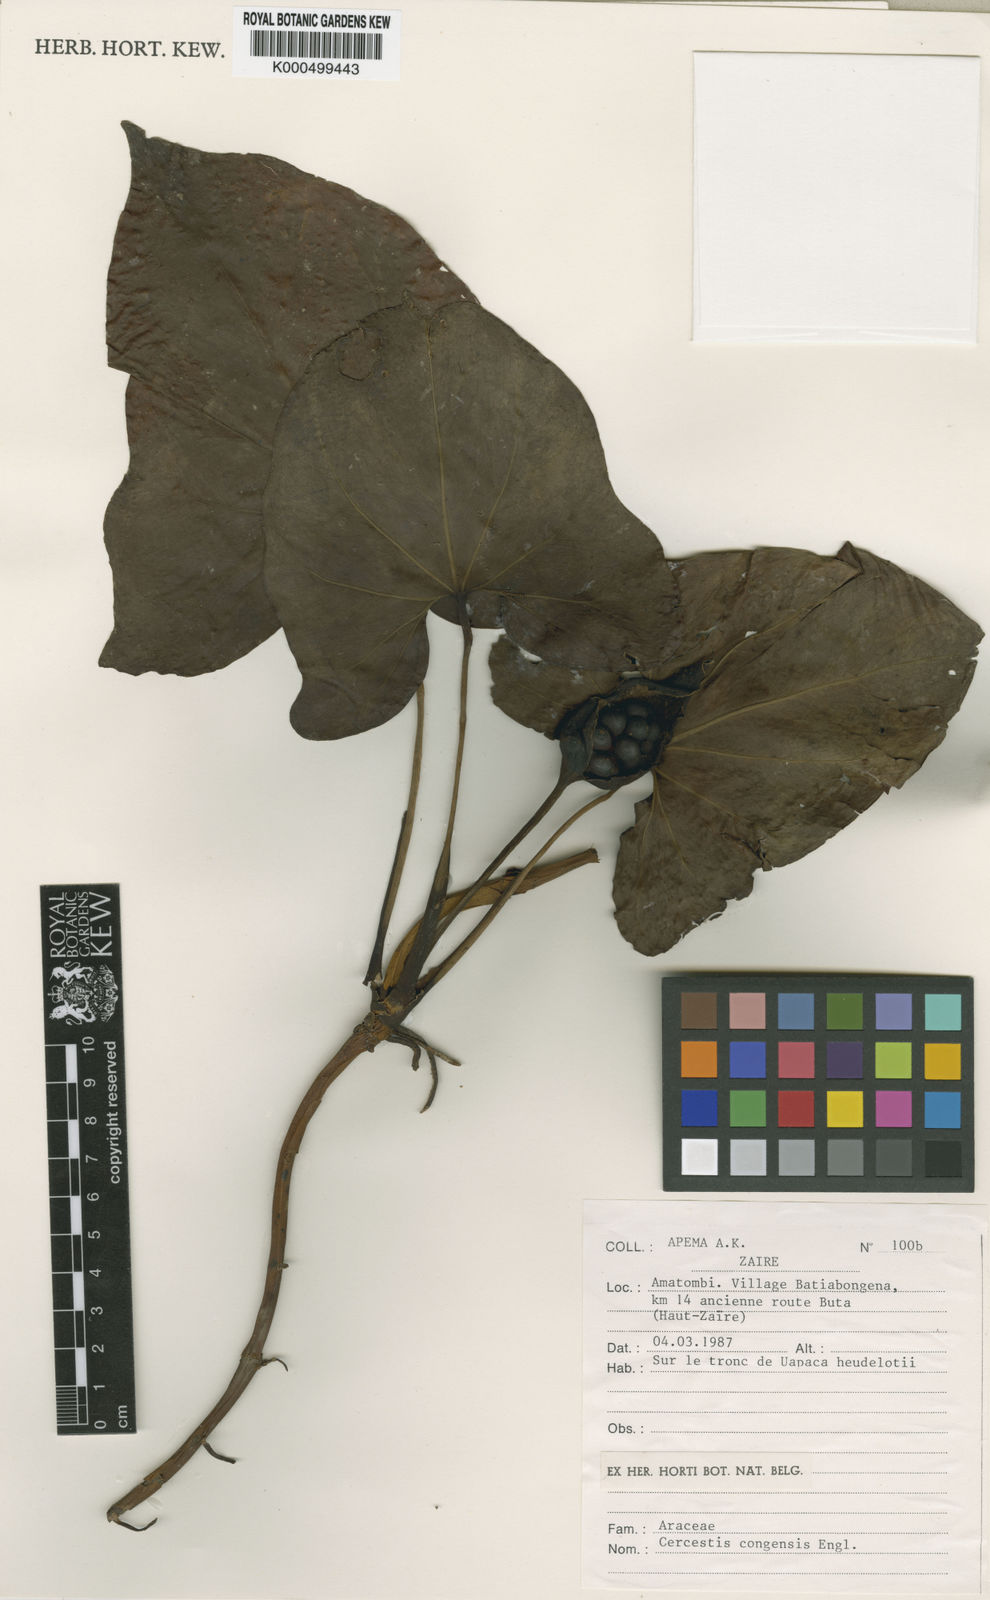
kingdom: Plantae
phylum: Tracheophyta
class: Liliopsida
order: Alismatales
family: Araceae
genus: Cercestis
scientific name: Cercestis
